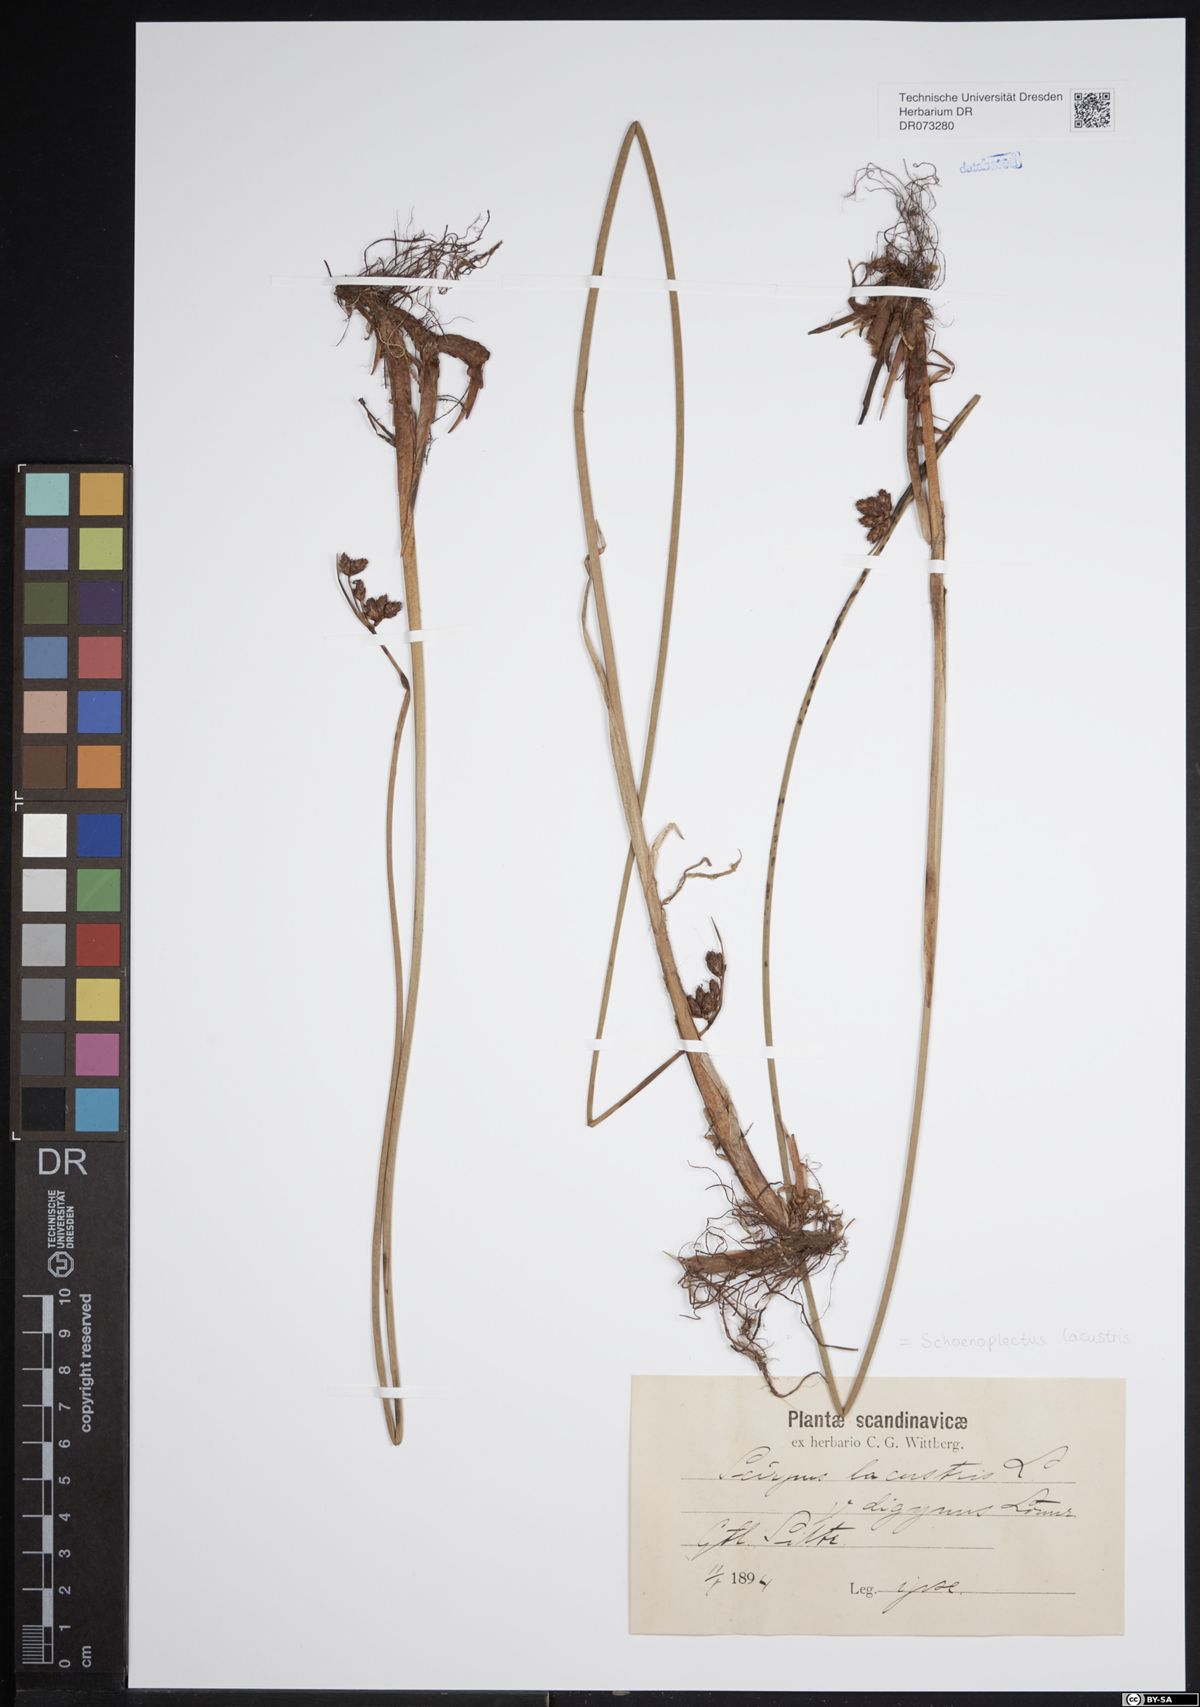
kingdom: Plantae
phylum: Tracheophyta
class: Liliopsida
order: Poales
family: Cyperaceae
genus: Schoenoplectus
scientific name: Schoenoplectus lacustris
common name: Common club-rush
